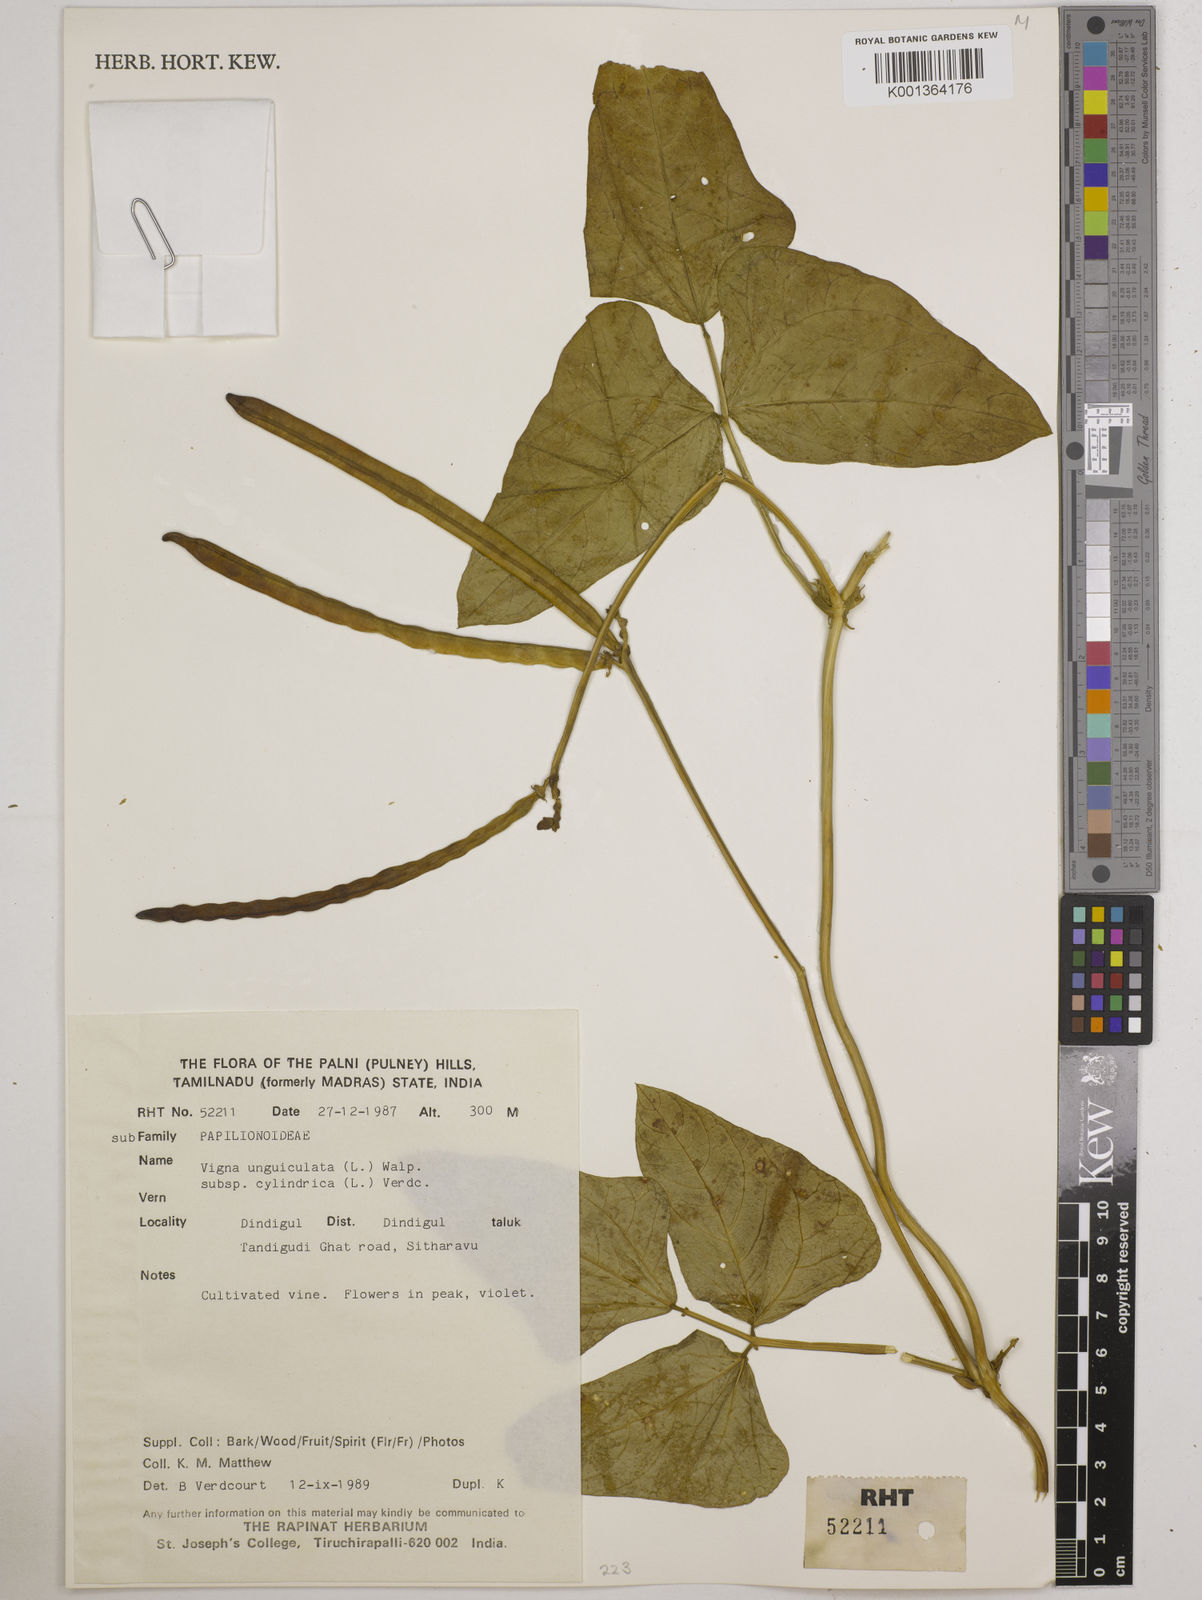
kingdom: Plantae
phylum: Tracheophyta
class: Magnoliopsida
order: Fabales
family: Fabaceae
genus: Vigna
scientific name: Vigna
